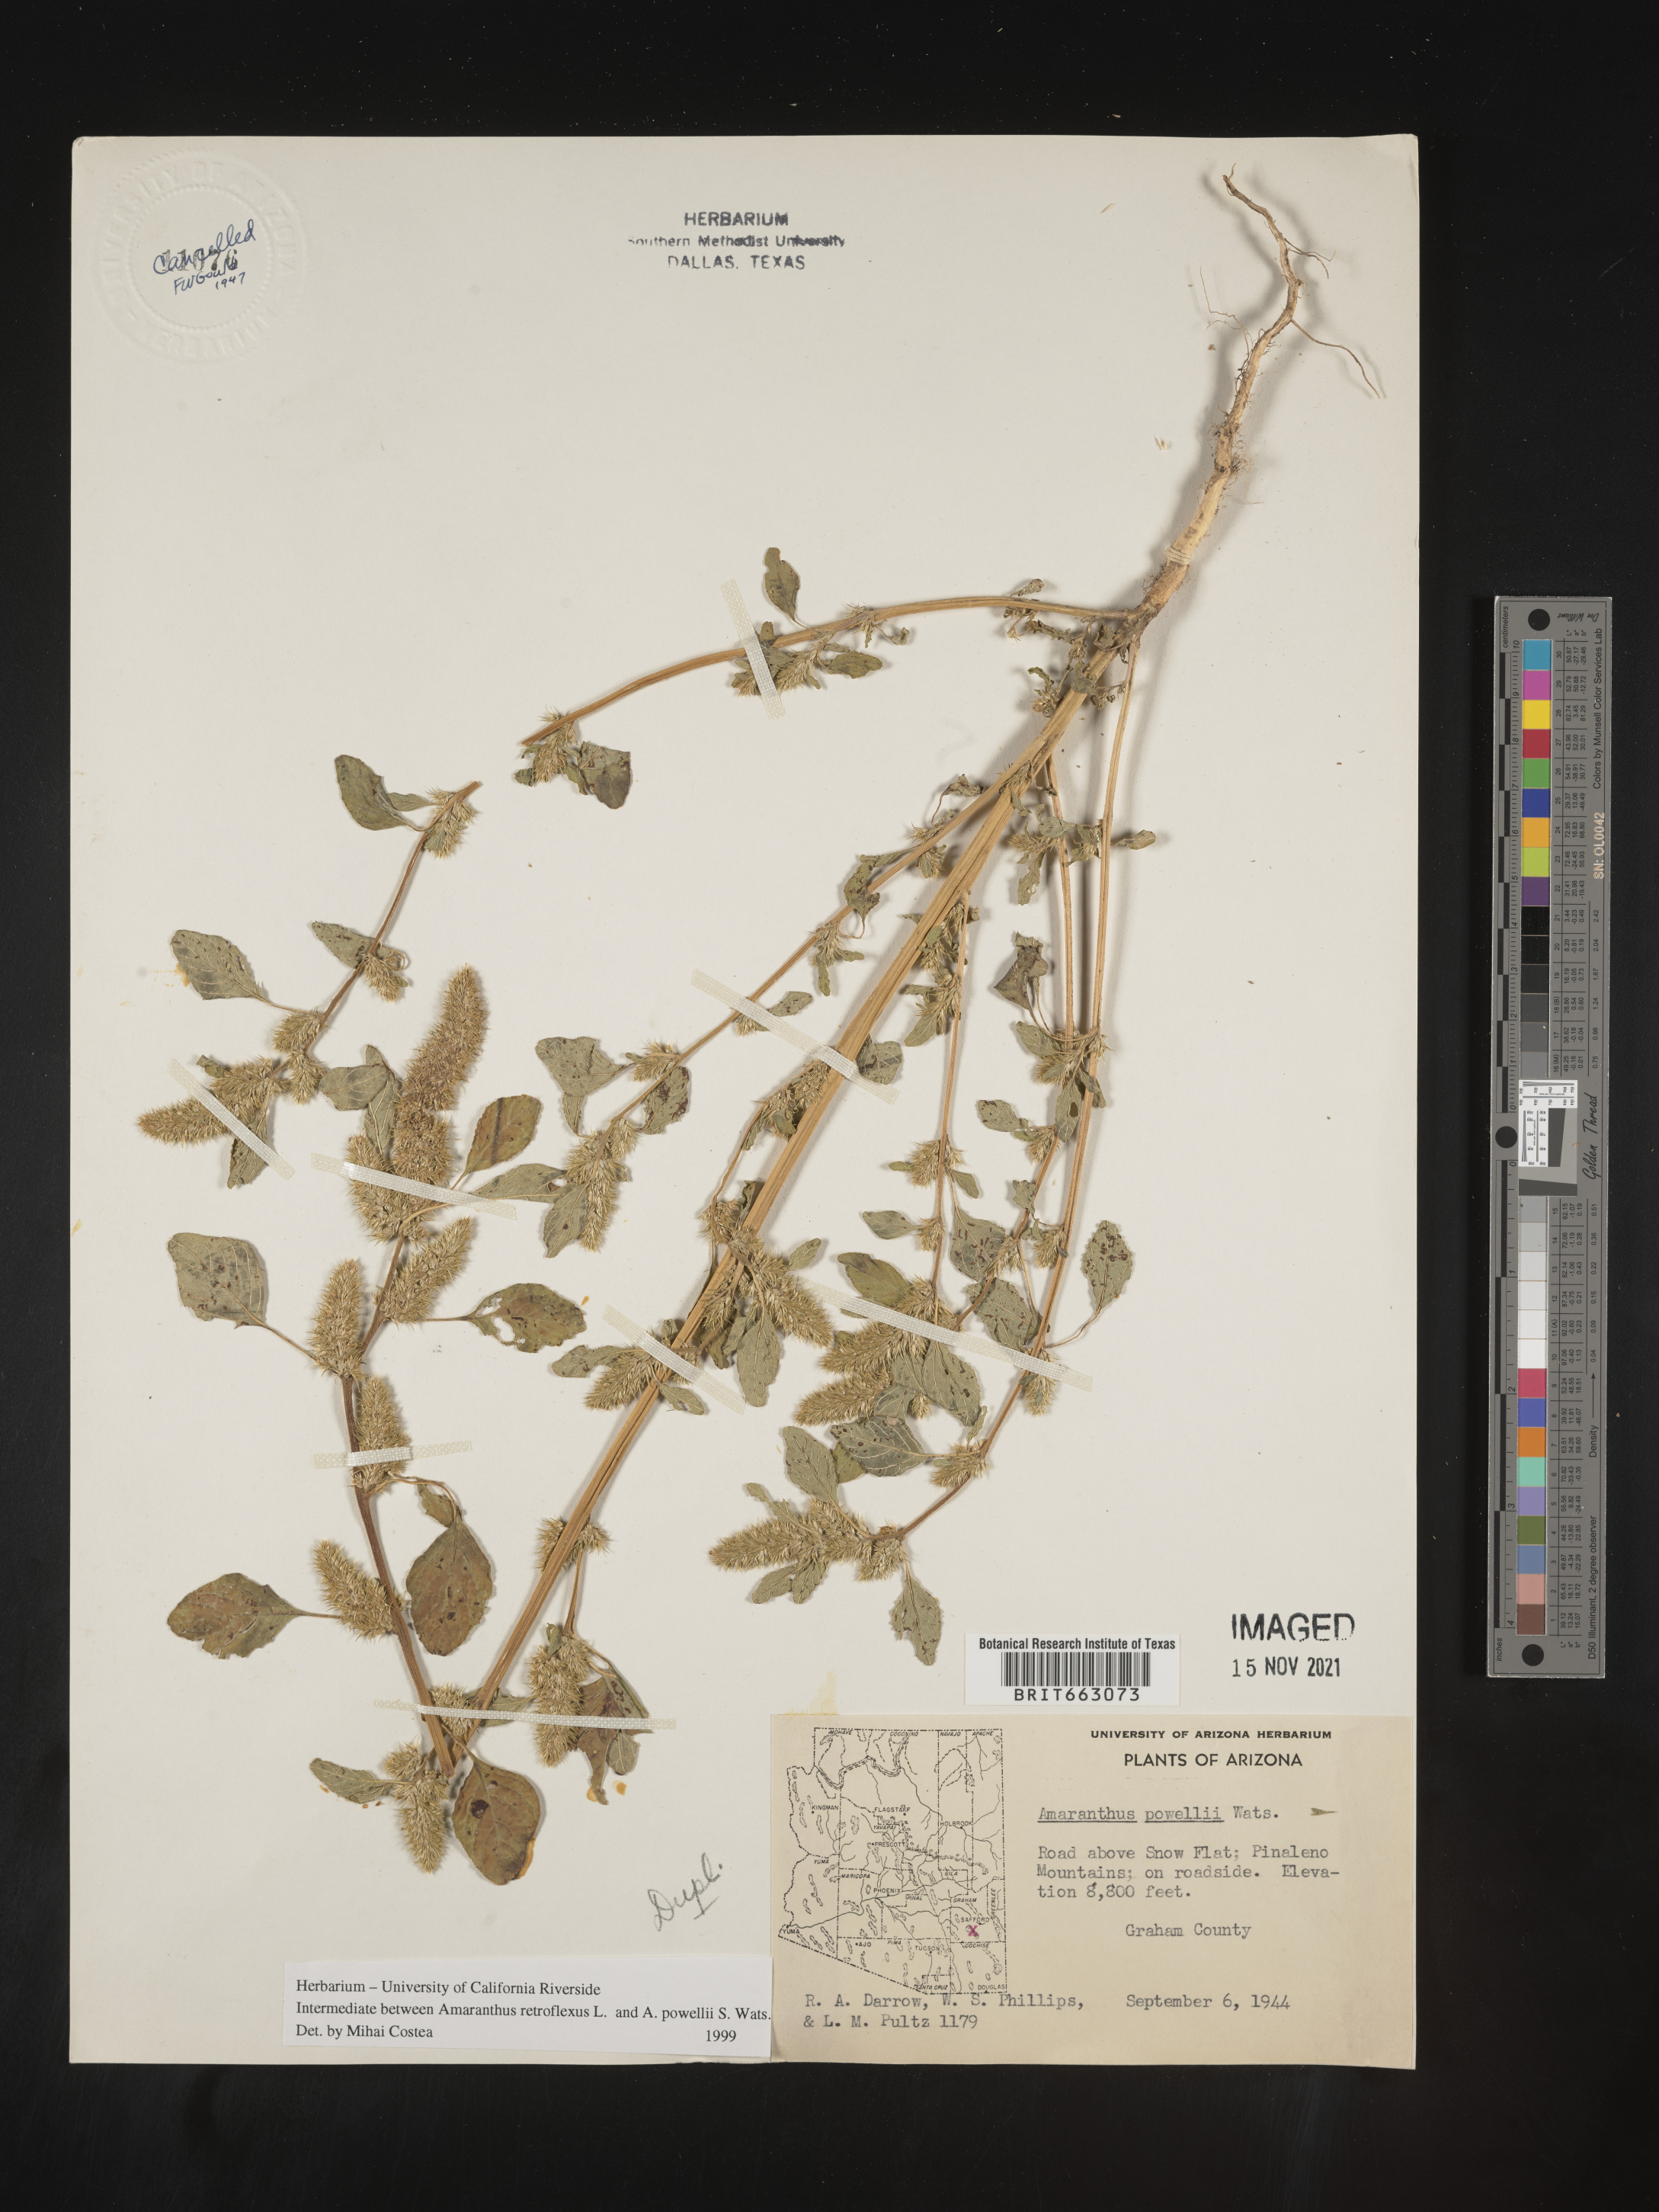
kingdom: Plantae
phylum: Tracheophyta
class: Magnoliopsida
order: Caryophyllales
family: Amaranthaceae
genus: Amaranthus
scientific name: Amaranthus powellii
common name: Powell's amaranth
